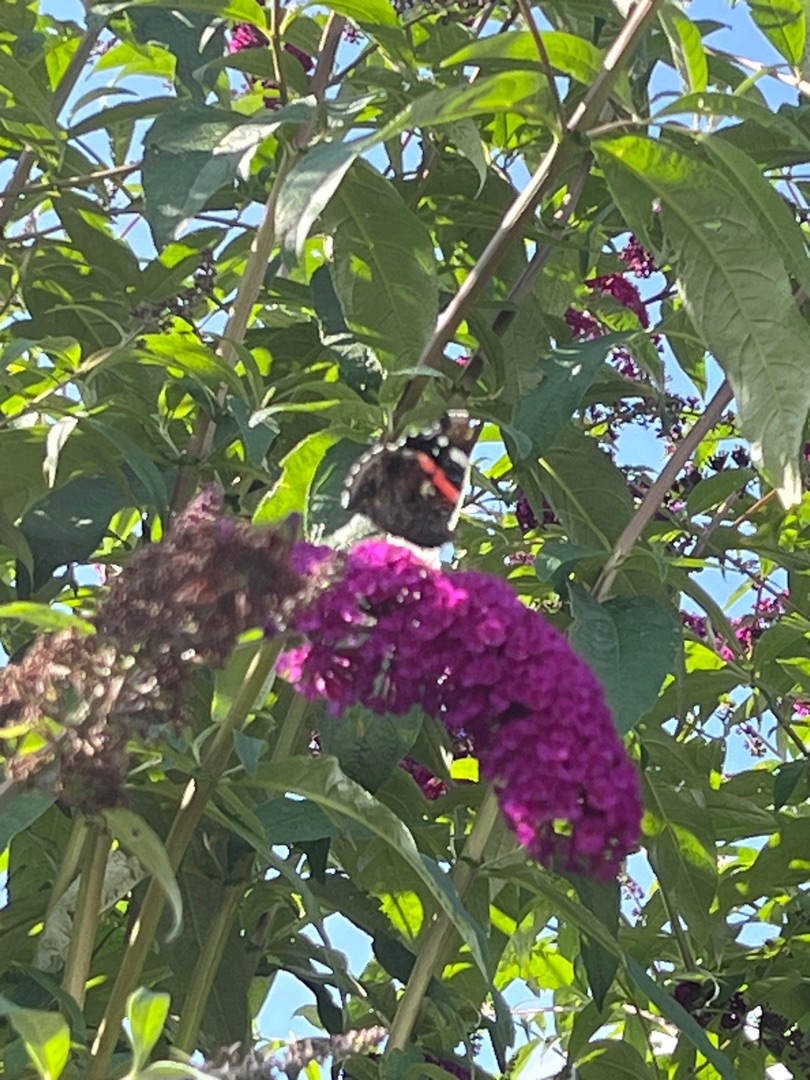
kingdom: Animalia
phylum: Arthropoda
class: Insecta
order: Lepidoptera
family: Nymphalidae
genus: Vanessa
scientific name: Vanessa atalanta
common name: Admiral
